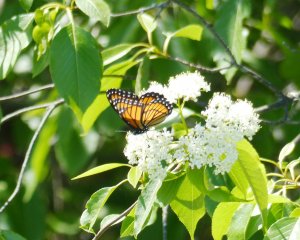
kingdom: Animalia
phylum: Arthropoda
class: Insecta
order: Lepidoptera
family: Nymphalidae
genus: Limenitis
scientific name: Limenitis archippus
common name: Viceroy
